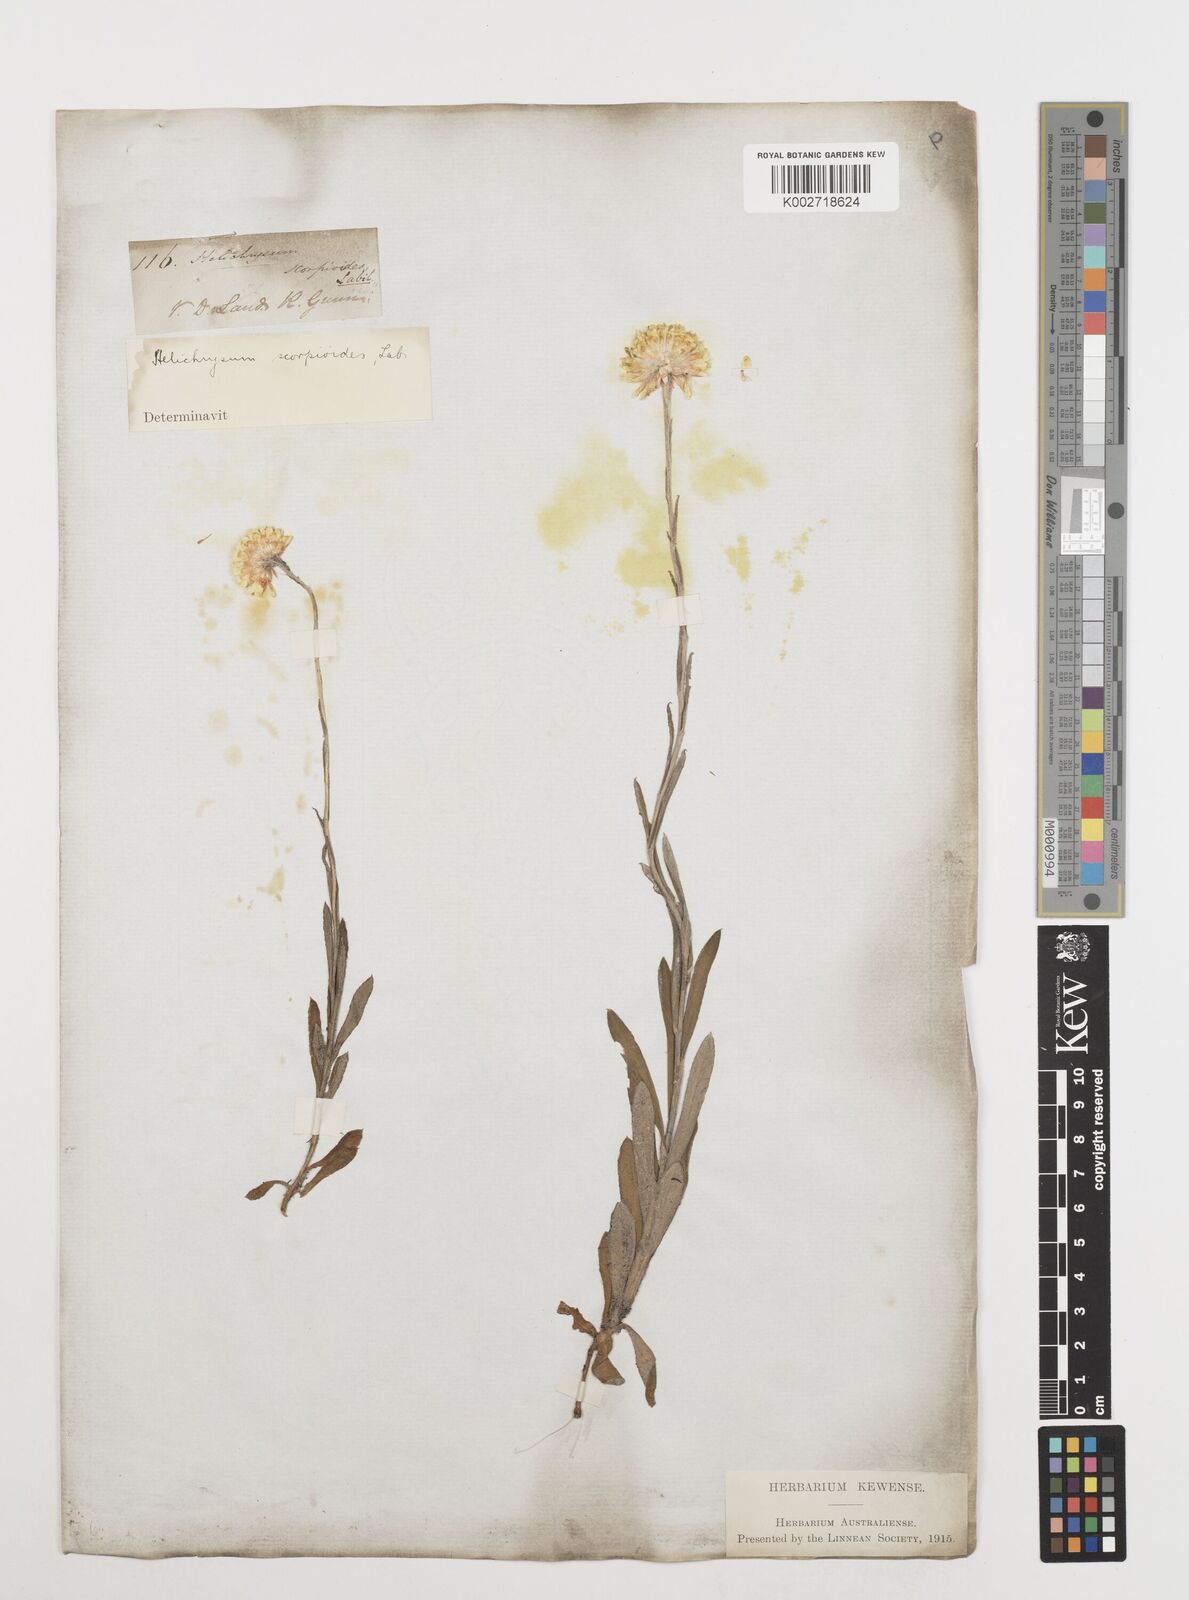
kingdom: Plantae
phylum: Tracheophyta
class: Magnoliopsida
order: Asterales
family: Asteraceae
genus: Coronidium
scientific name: Coronidium scorpioides
